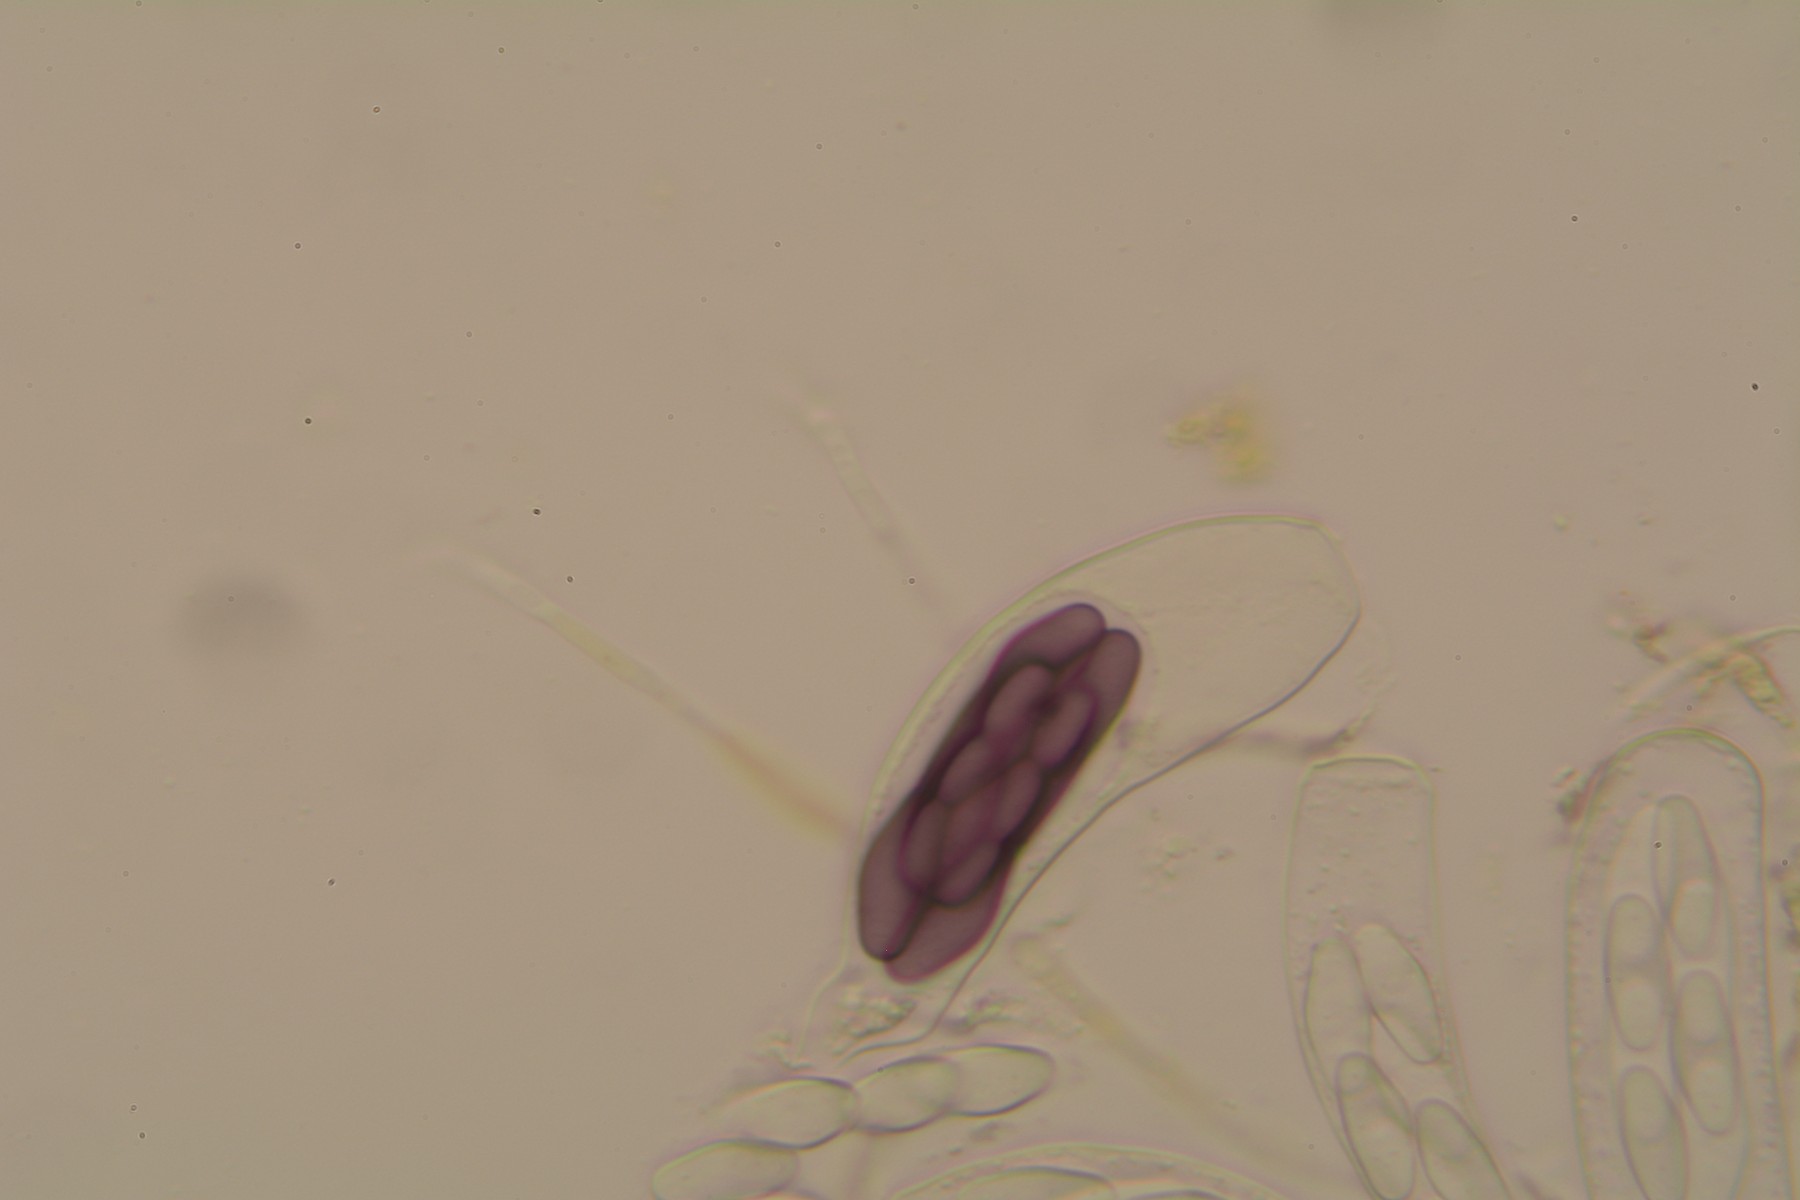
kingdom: Fungi
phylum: Ascomycota
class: Pezizomycetes
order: Pezizales
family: Ascobolaceae
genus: Saccobolus
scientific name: Saccobolus truncatus
